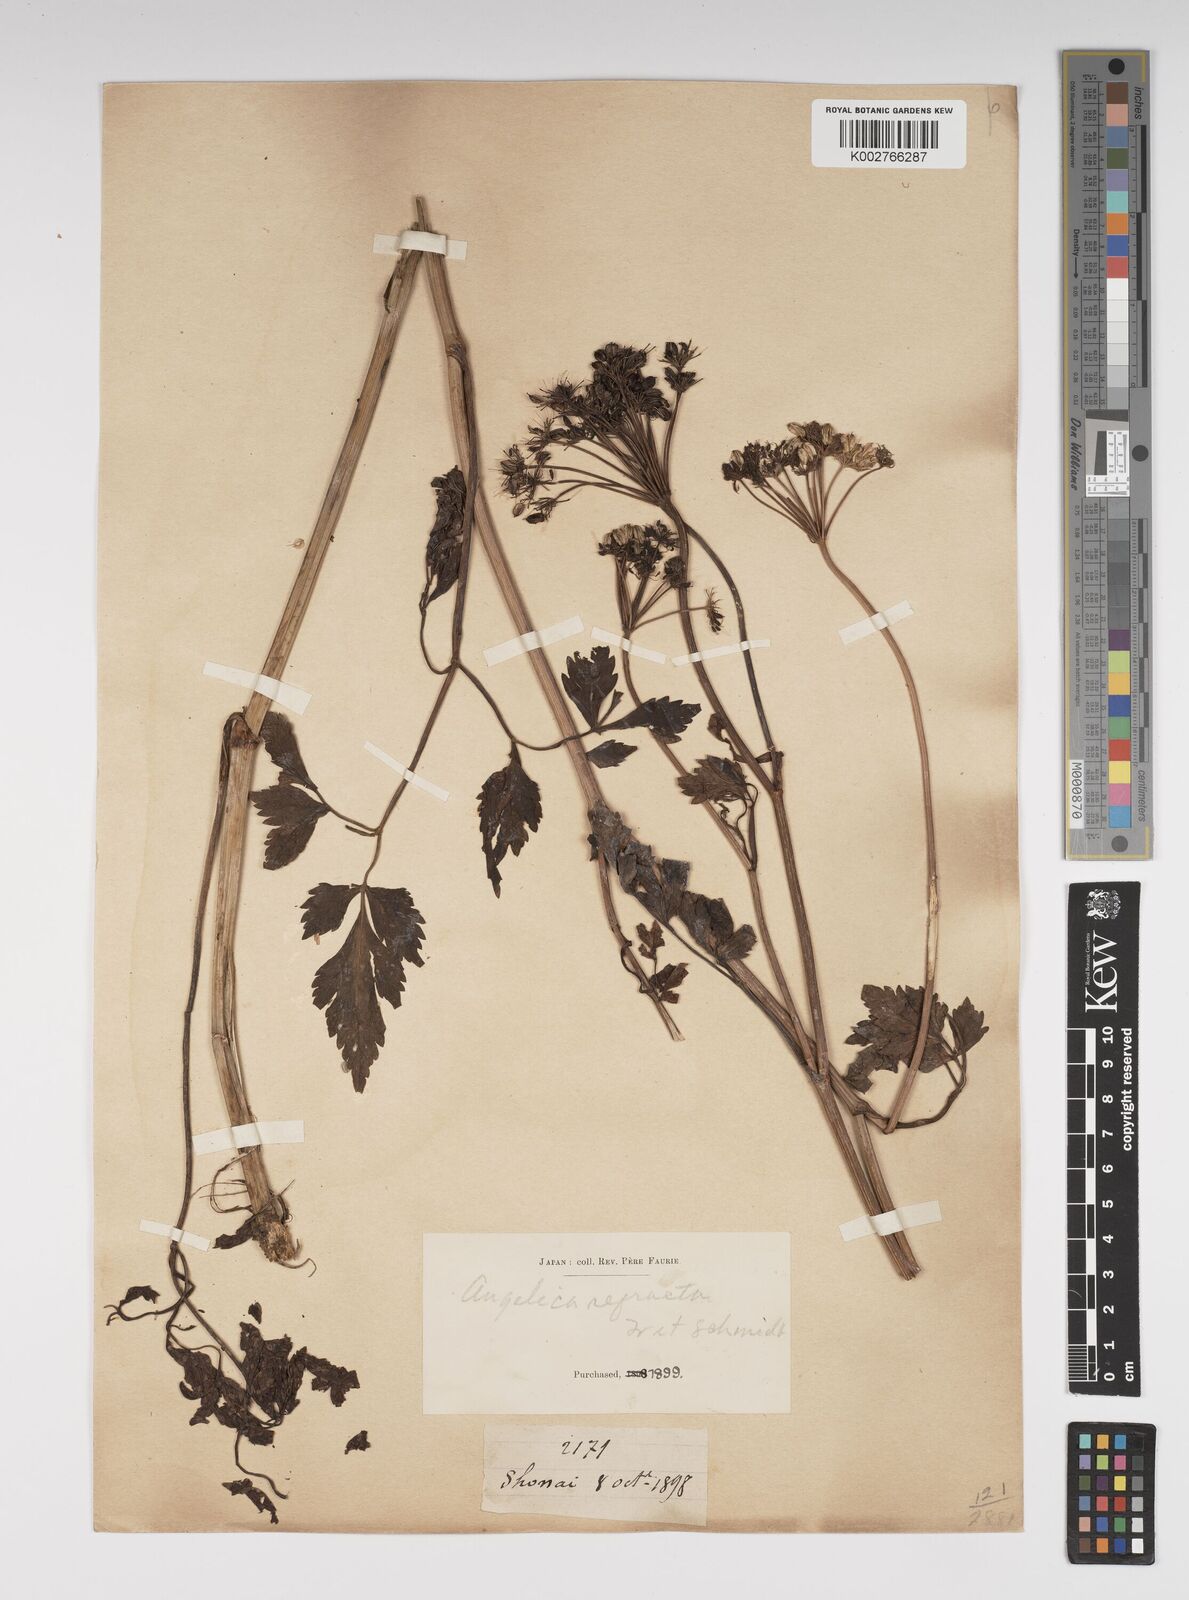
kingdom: Plantae
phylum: Tracheophyta
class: Magnoliopsida
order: Apiales
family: Apiaceae
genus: Angelica
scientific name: Angelica genuflexa
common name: Kneeling angelica
